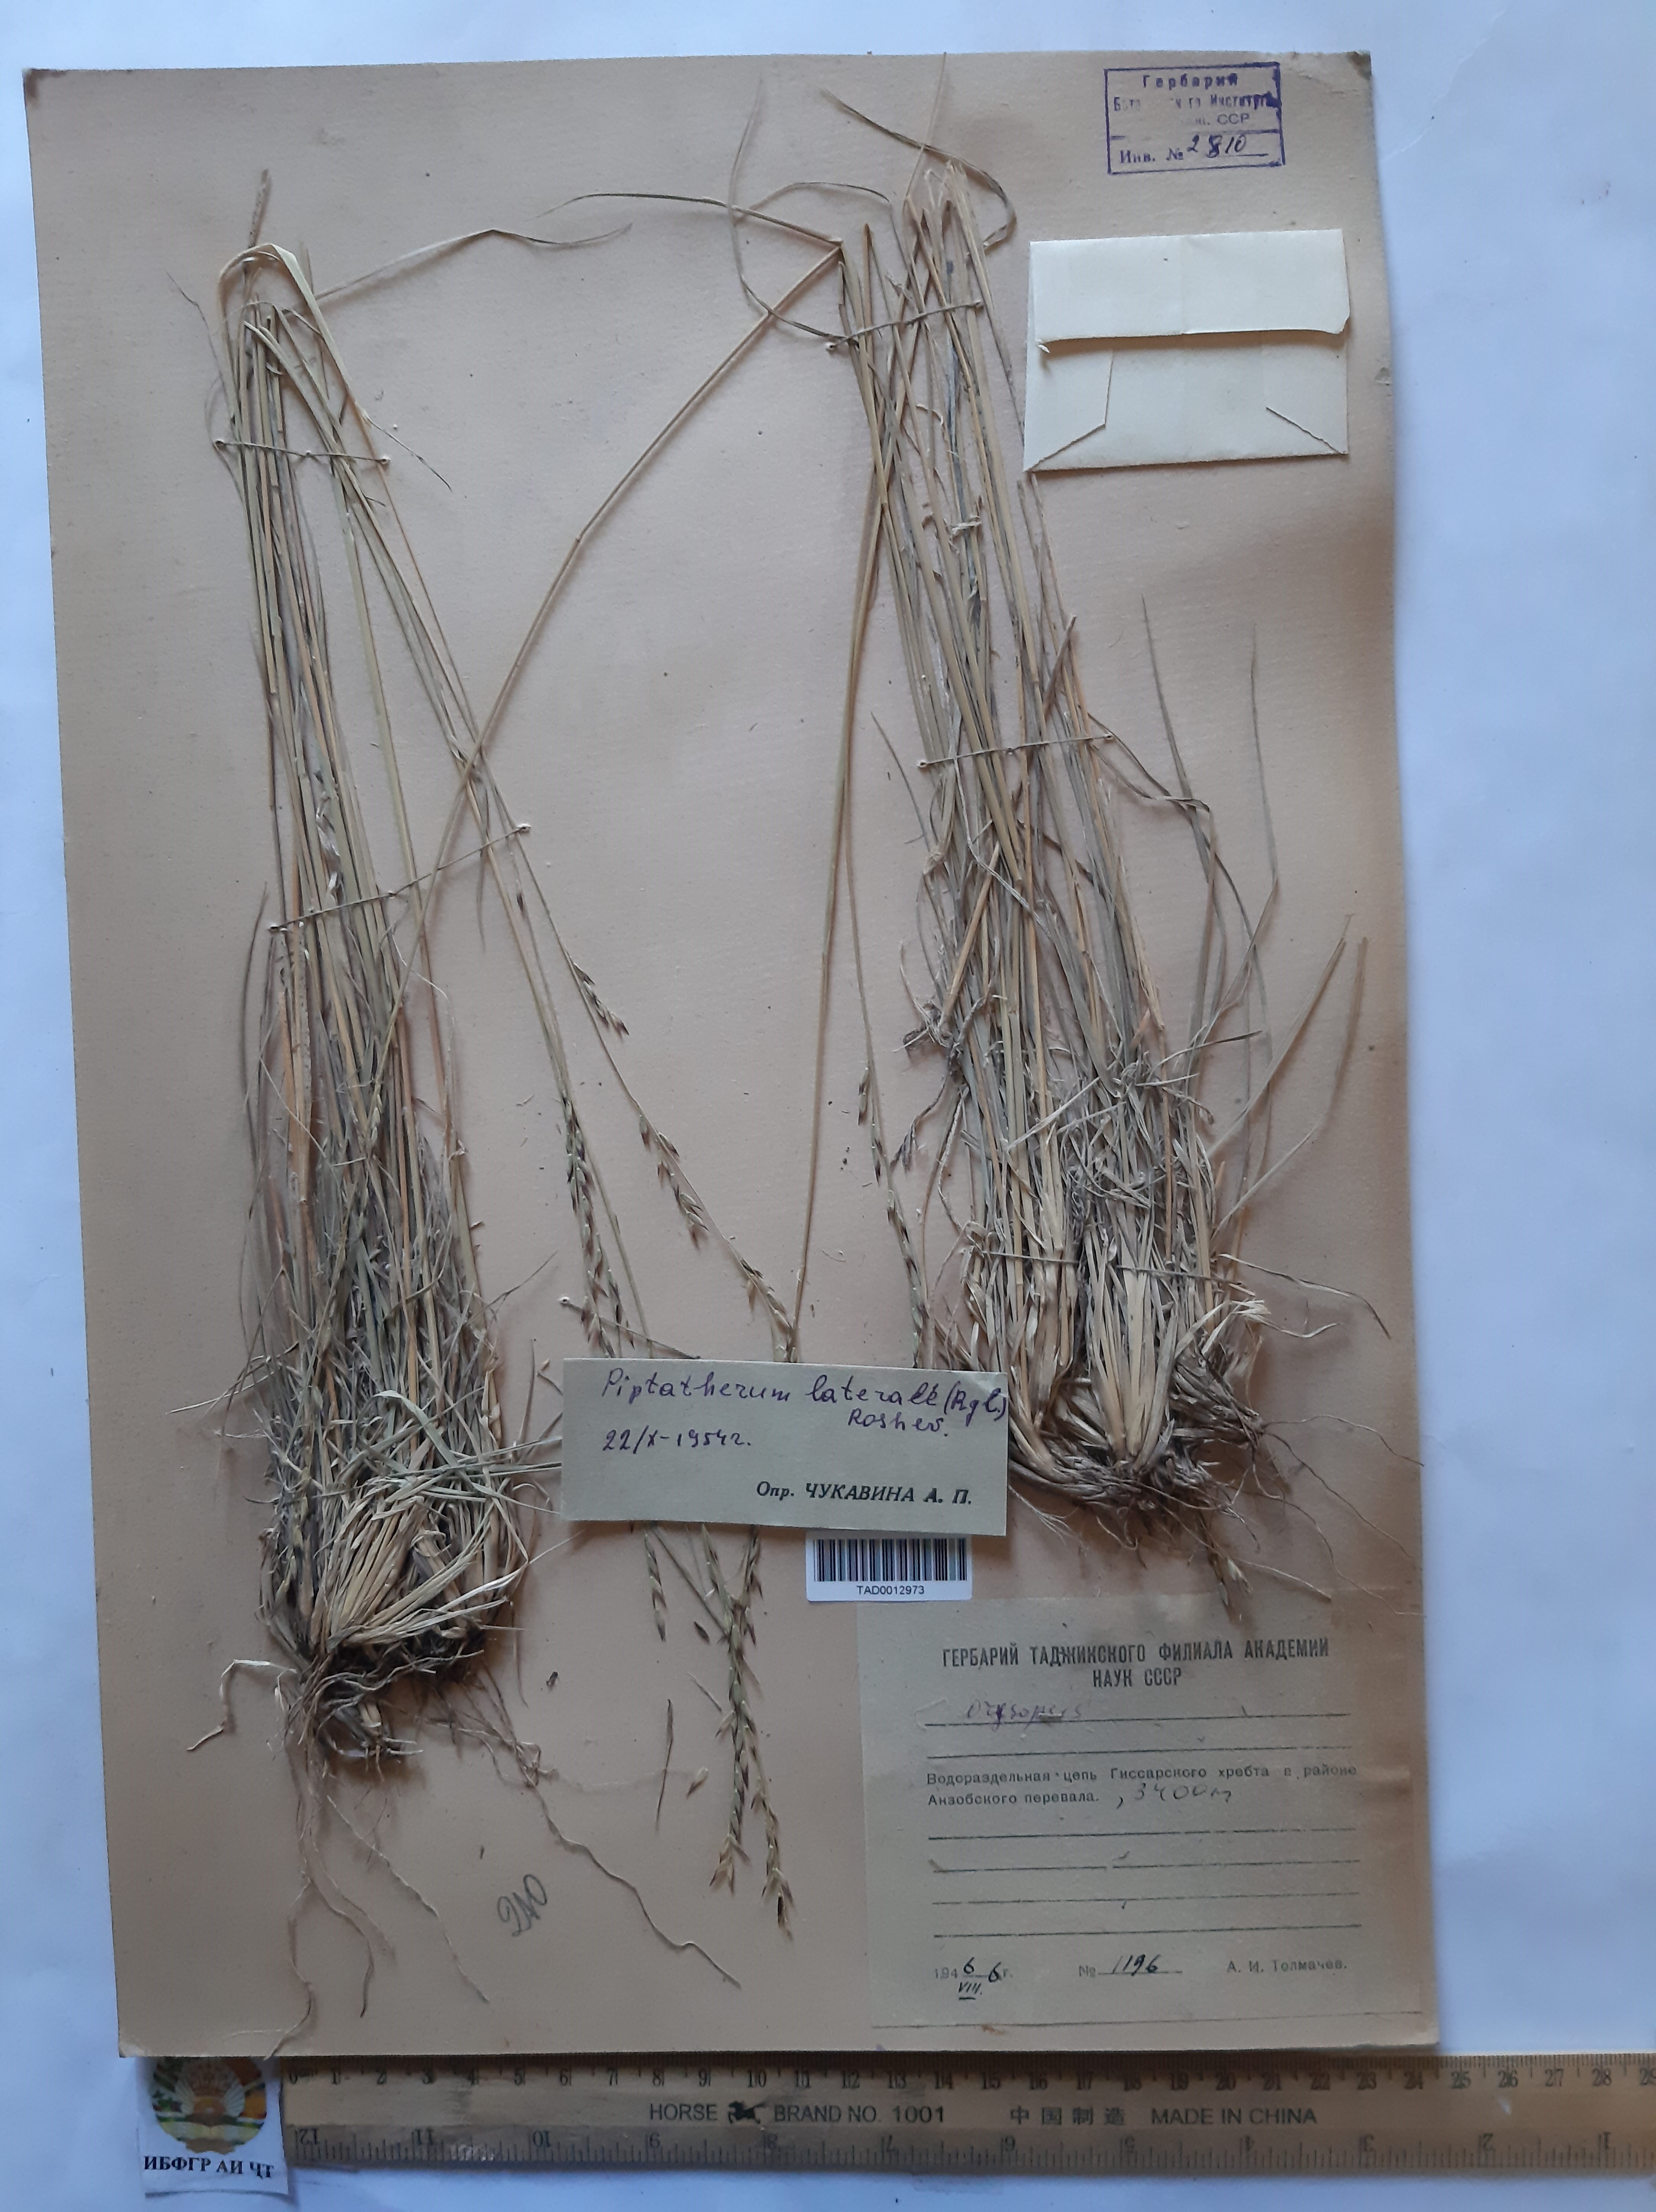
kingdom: Plantae
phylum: Tracheophyta
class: Liliopsida
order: Poales
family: Poaceae
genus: Piptatherum
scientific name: Piptatherum laterale
